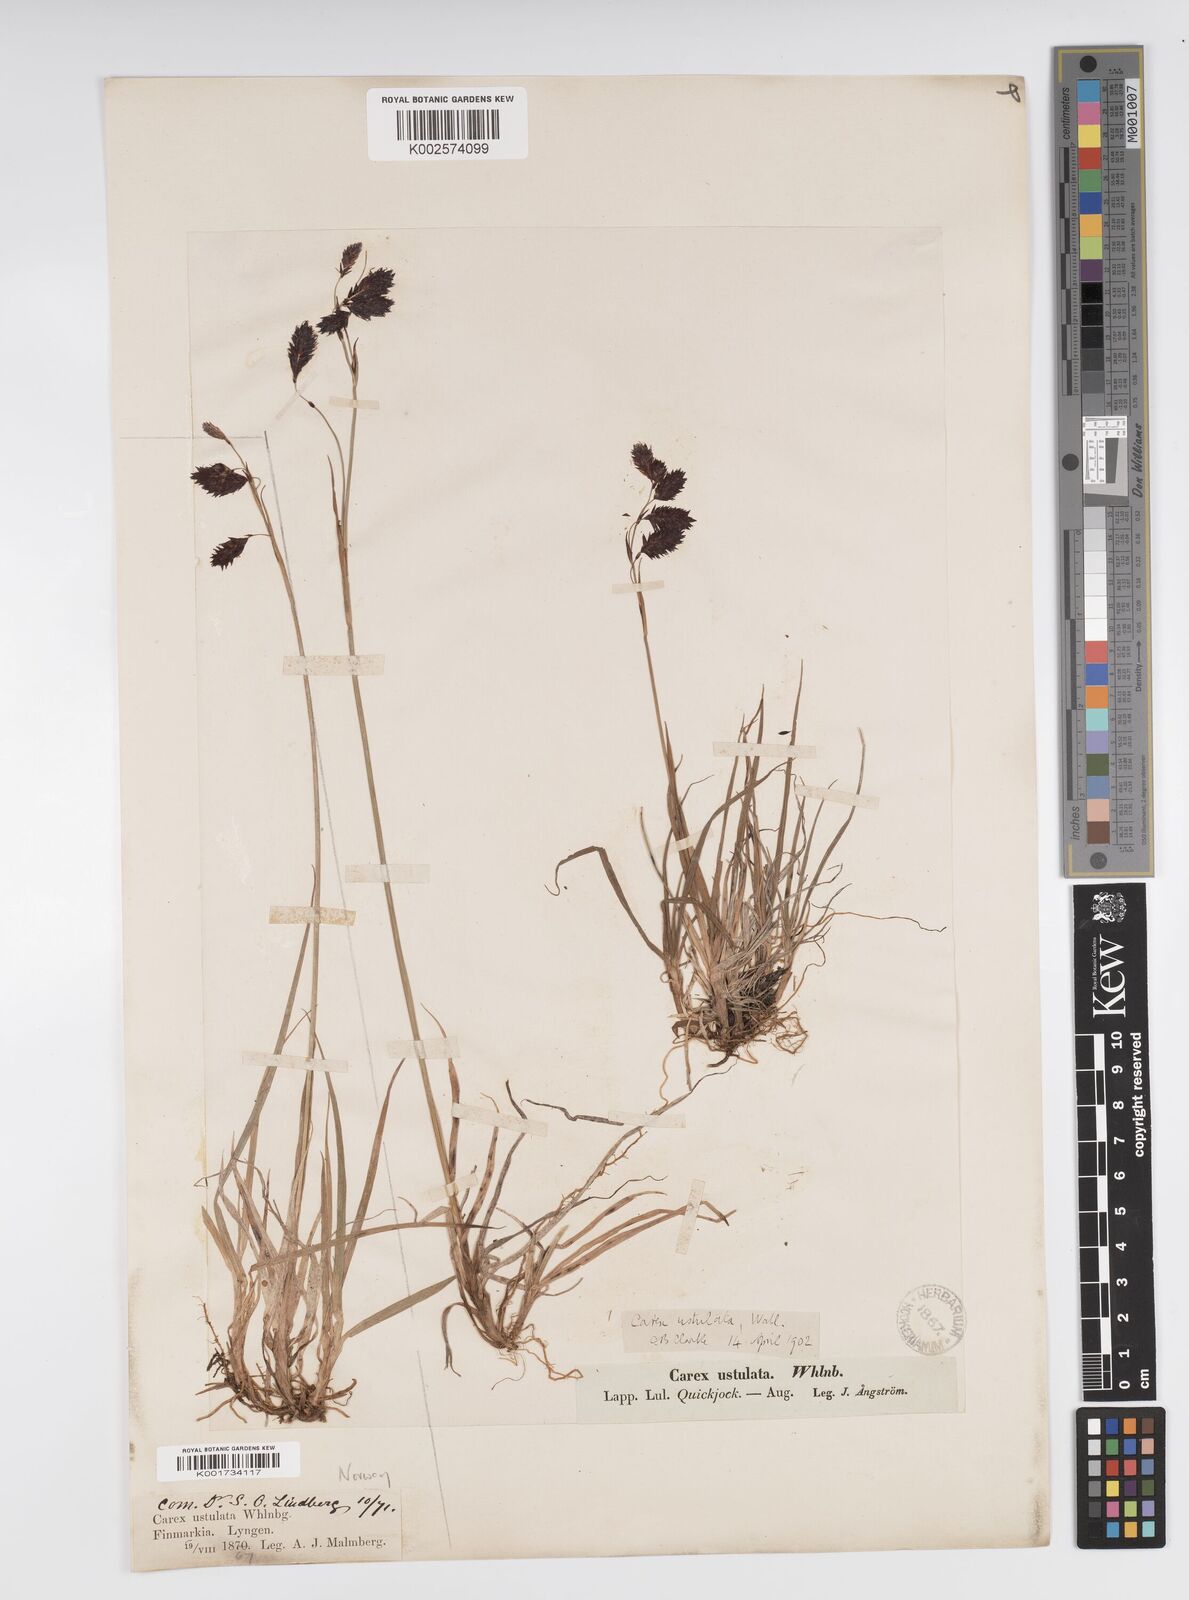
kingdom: Plantae
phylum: Tracheophyta
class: Liliopsida
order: Poales
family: Cyperaceae
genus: Carex
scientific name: Carex atrofusca
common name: Scorched alpine-sedge
